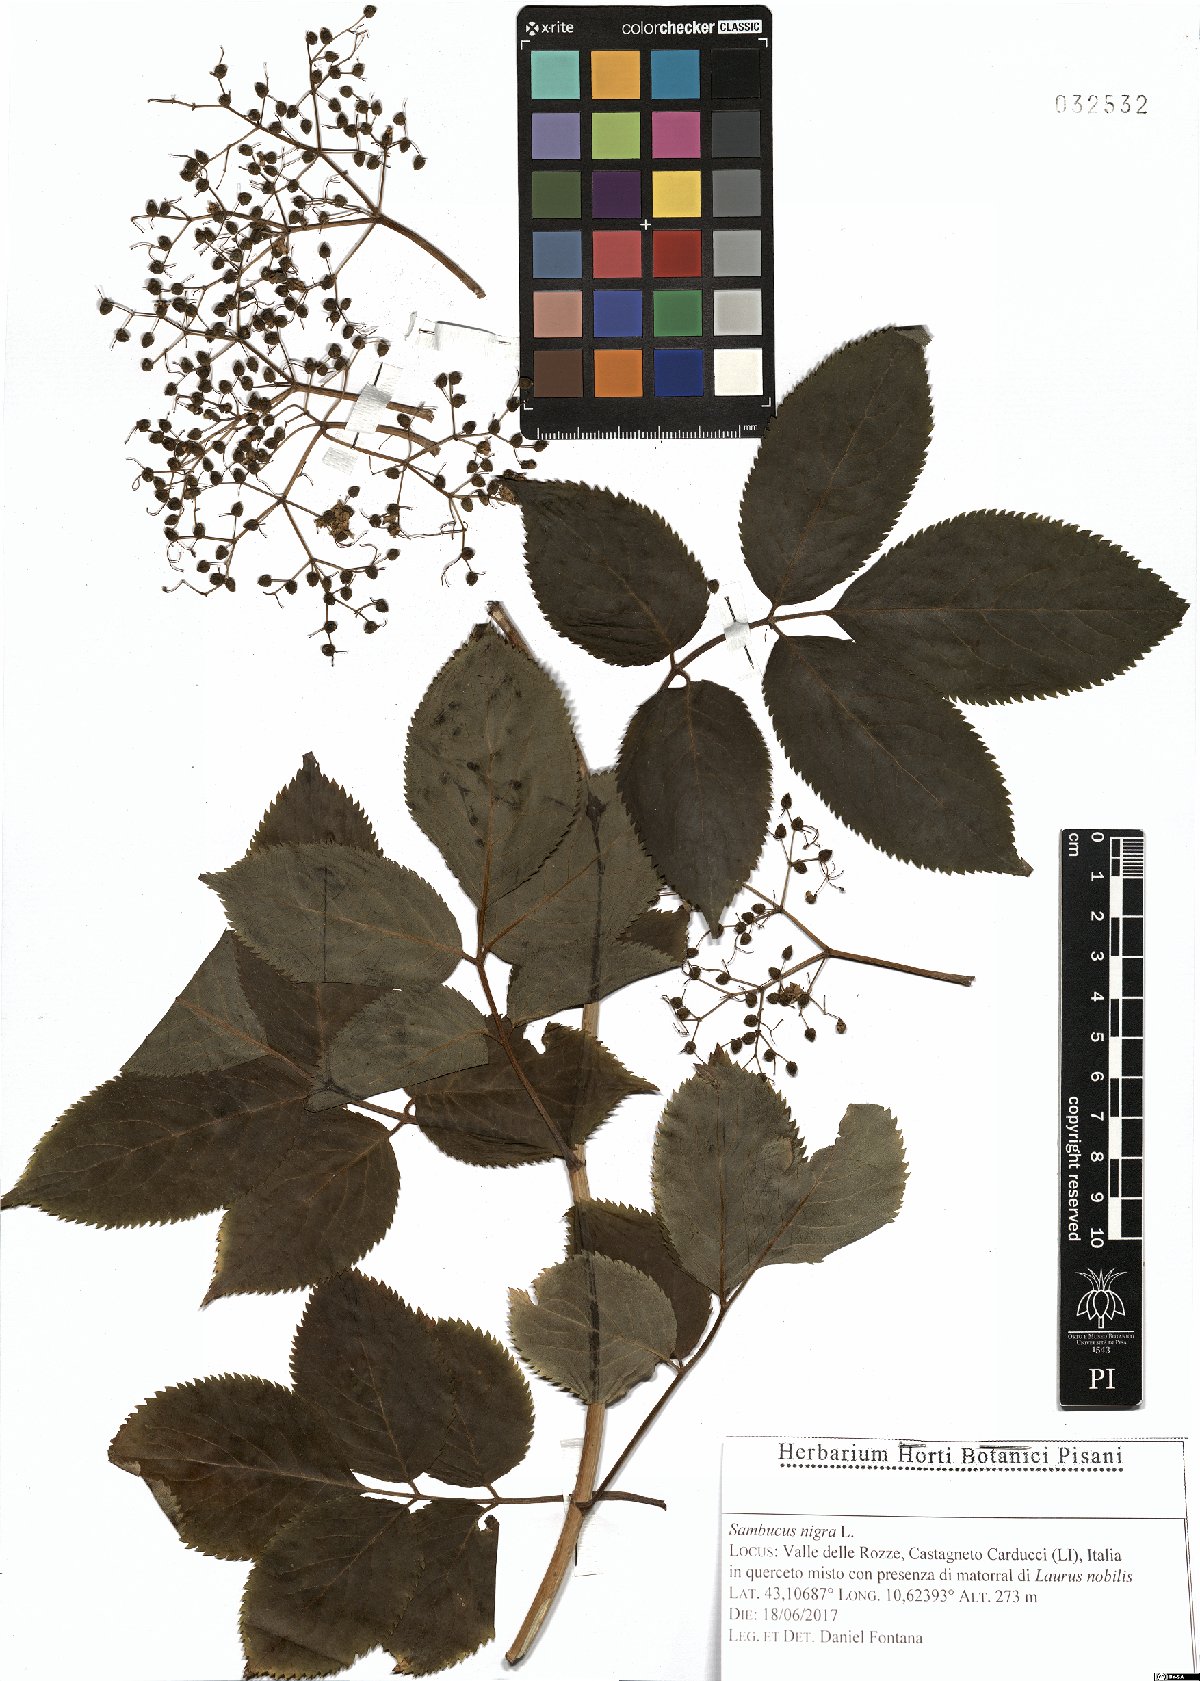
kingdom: Plantae
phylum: Tracheophyta
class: Magnoliopsida
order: Dipsacales
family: Viburnaceae
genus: Sambucus
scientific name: Sambucus nigra
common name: Elder
